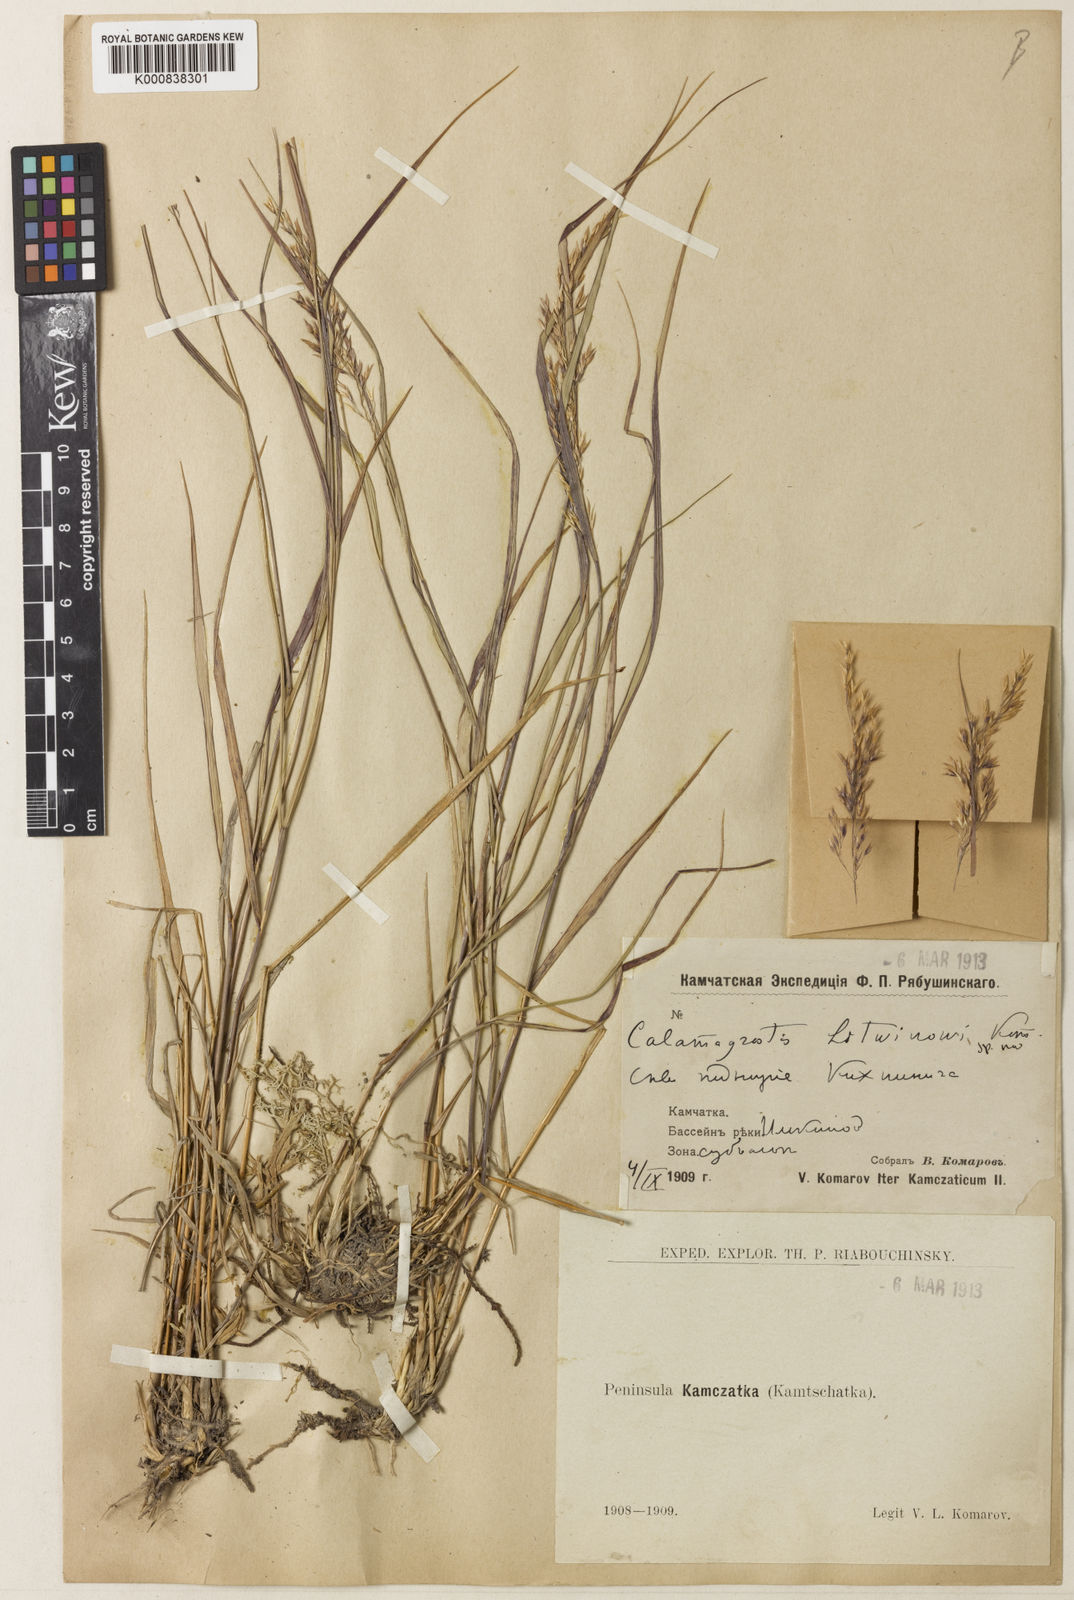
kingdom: Plantae
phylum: Tracheophyta
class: Liliopsida
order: Poales
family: Poaceae
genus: Calamagrostis
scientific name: Calamagrostis sachalinensis
